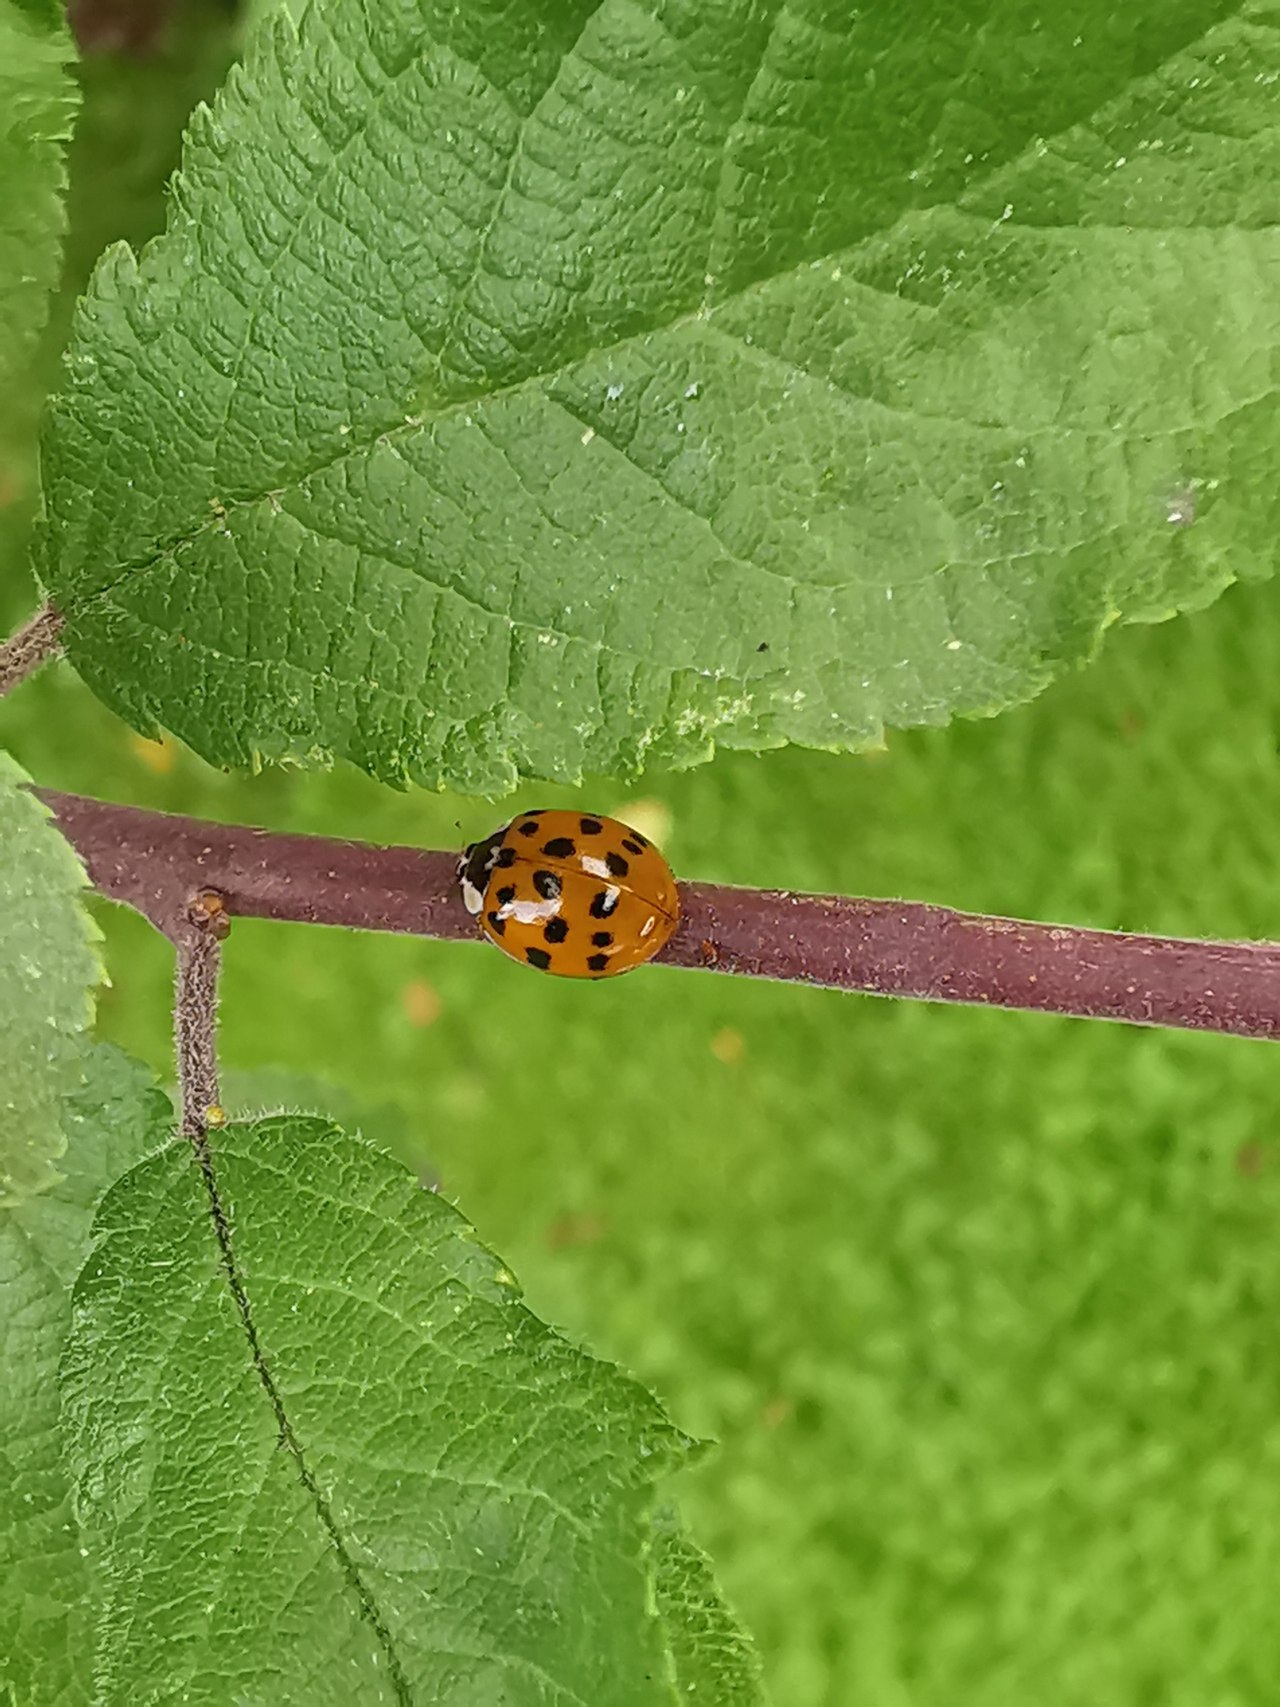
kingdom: Animalia
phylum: Arthropoda
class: Insecta
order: Coleoptera
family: Coccinellidae
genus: Harmonia
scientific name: Harmonia axyridis
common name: Harlekinmariehøne
